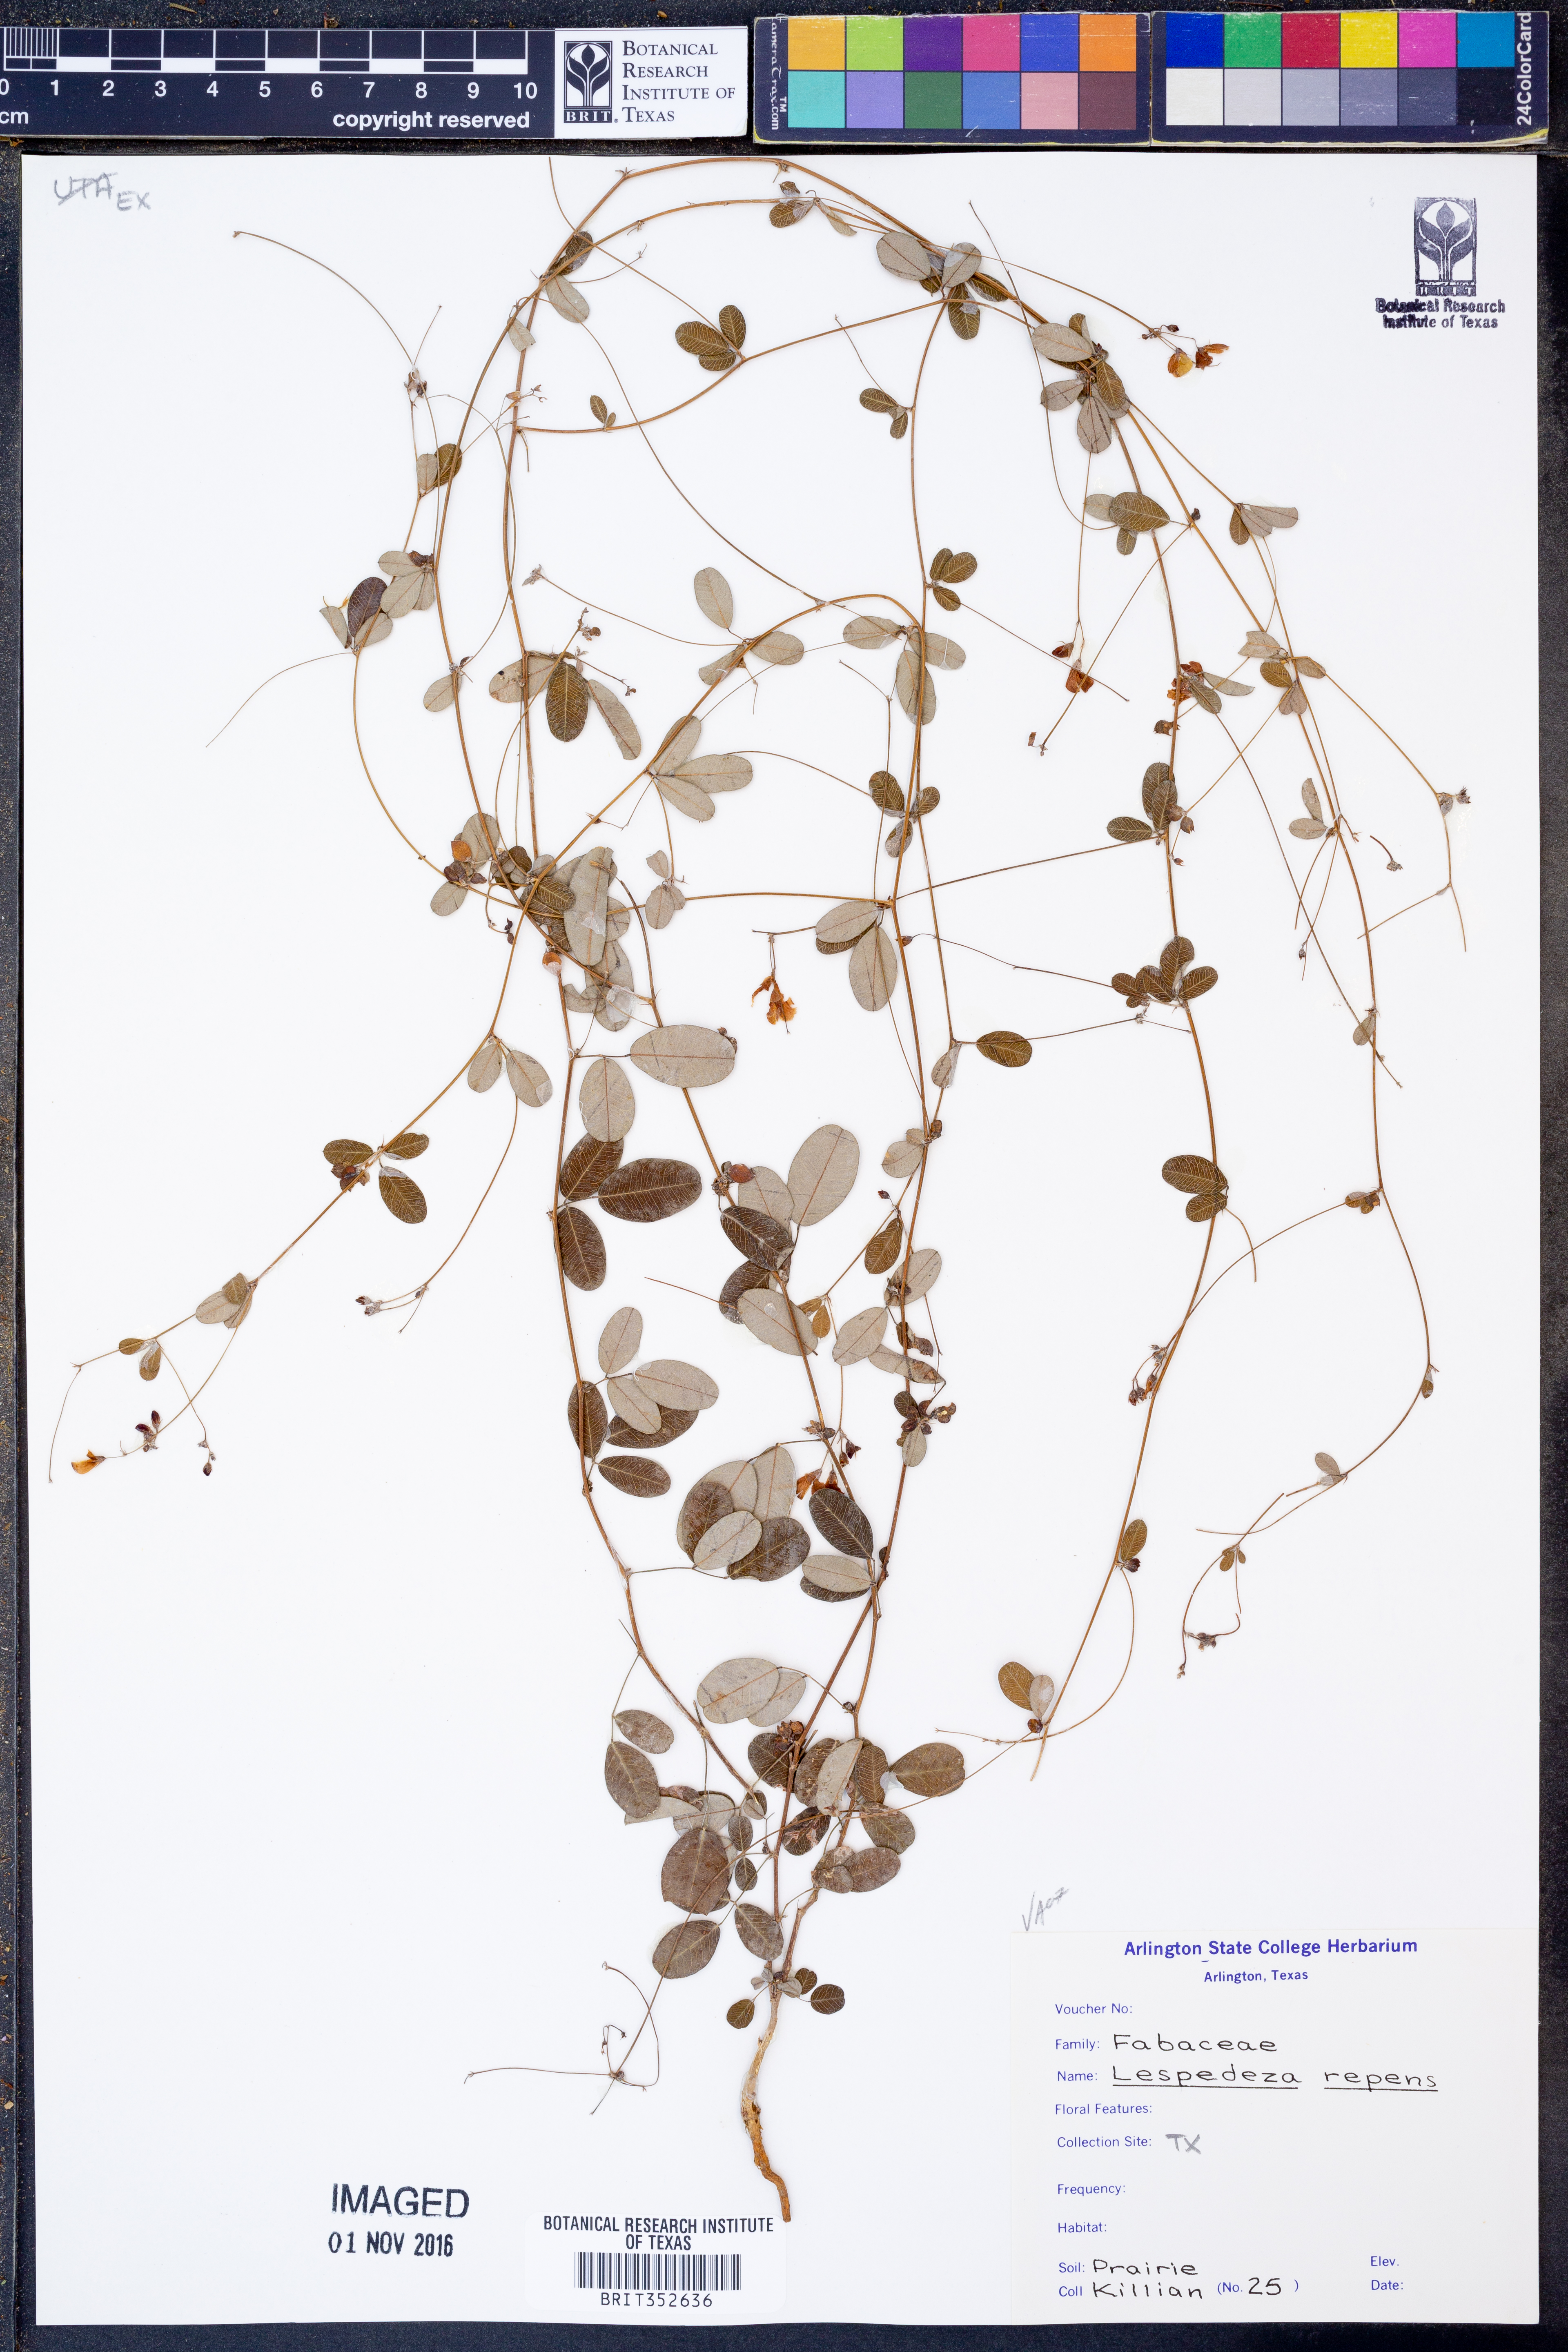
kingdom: Plantae
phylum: Tracheophyta
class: Magnoliopsida
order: Fabales
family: Fabaceae
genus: Lespedeza
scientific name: Lespedeza repens
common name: Creeping bush-clover
